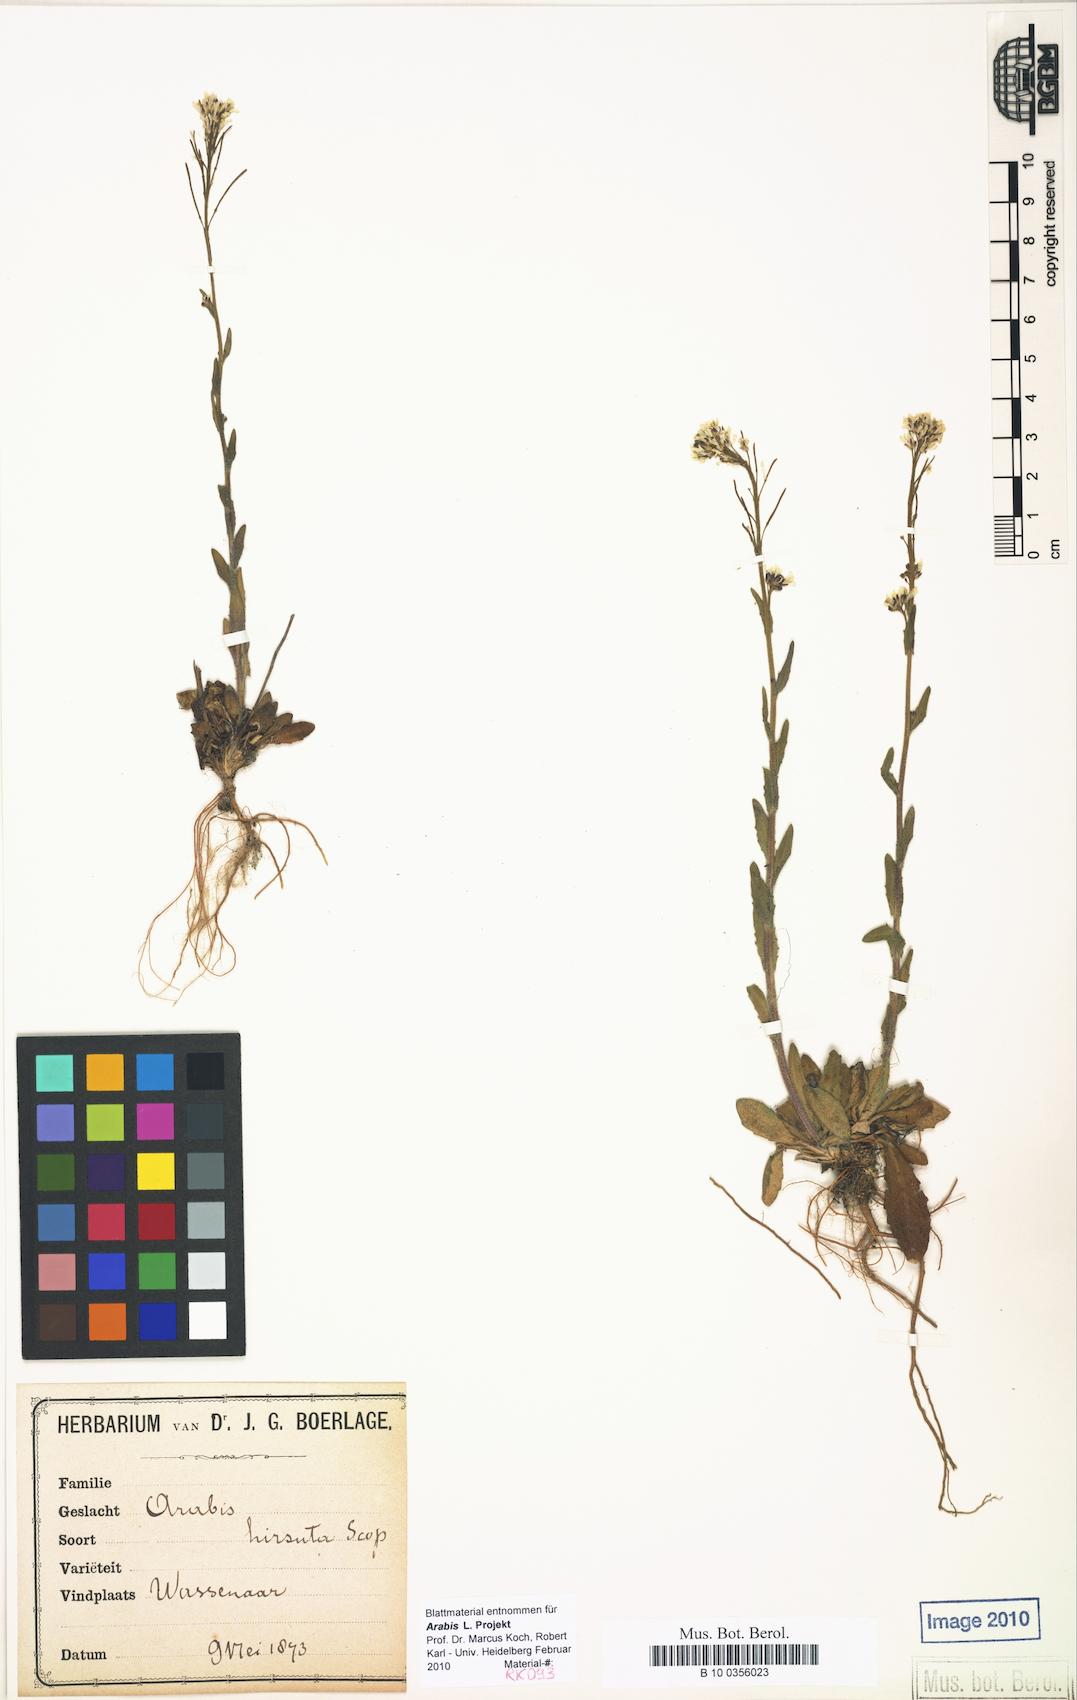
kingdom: Plantae
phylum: Tracheophyta
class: Magnoliopsida
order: Brassicales
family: Brassicaceae
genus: Arabis
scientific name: Arabis hirsuta
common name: Hairy rock-cress
